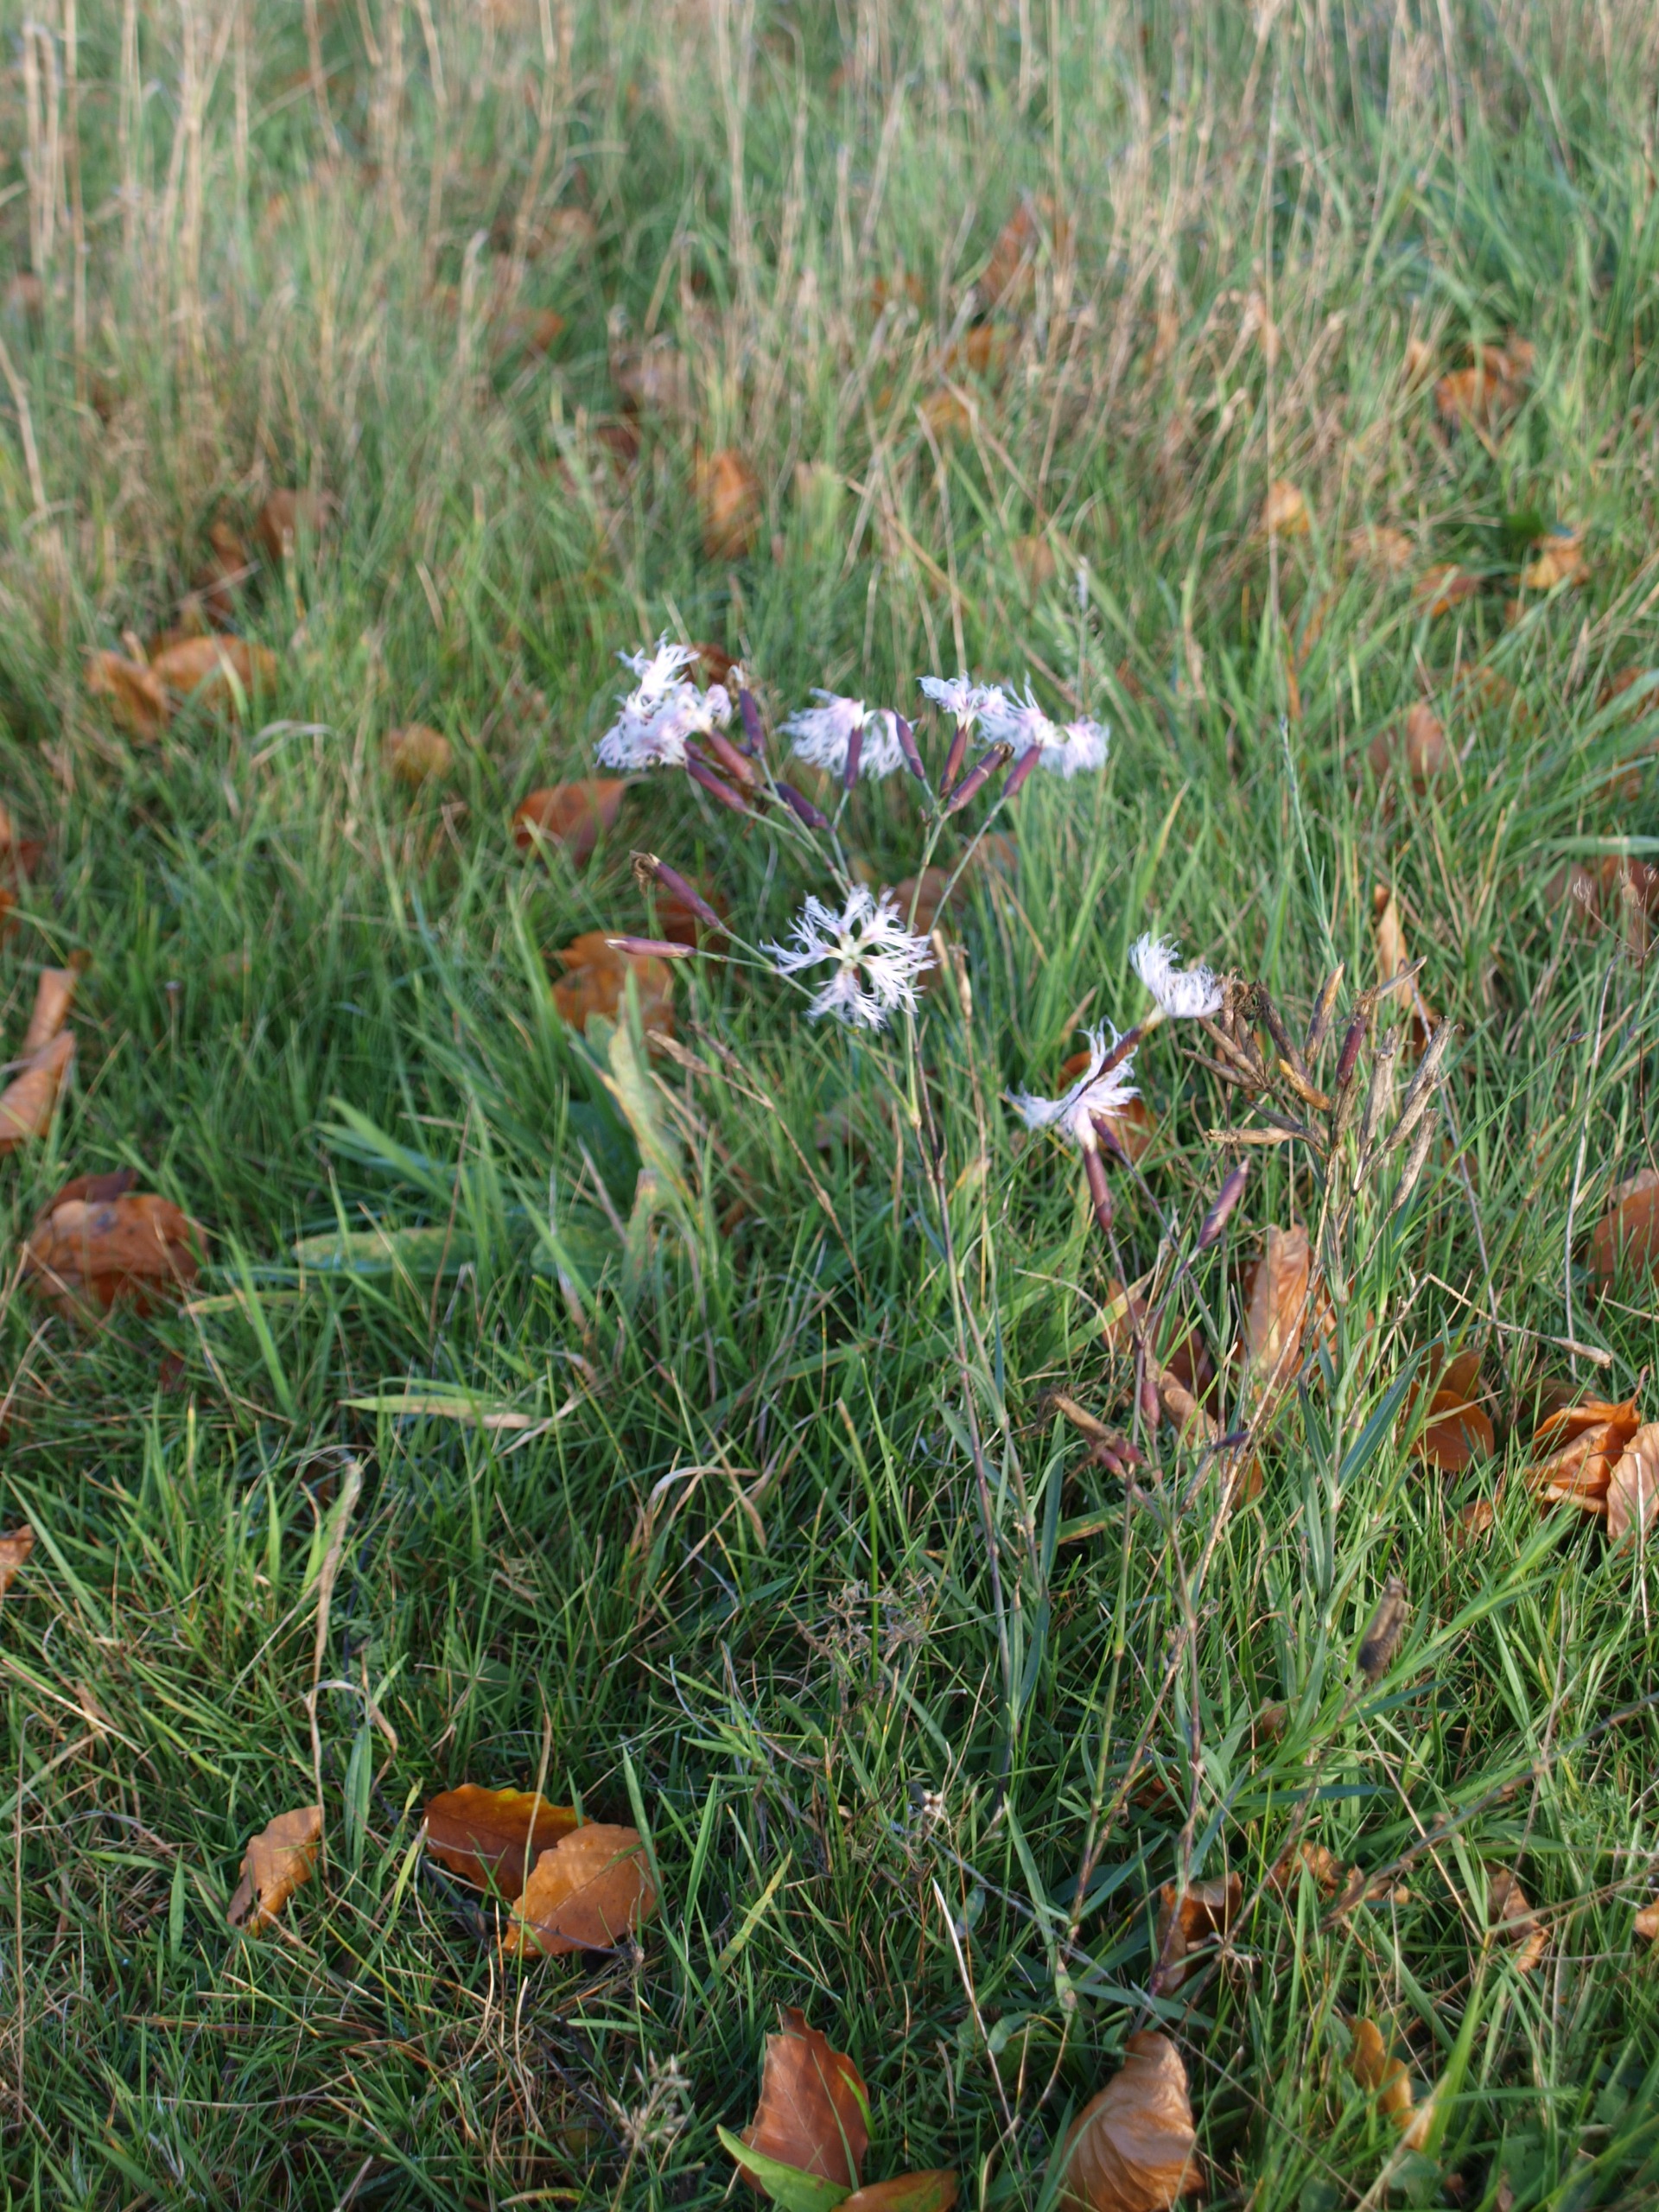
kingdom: Plantae
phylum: Tracheophyta
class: Magnoliopsida
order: Caryophyllales
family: Caryophyllaceae
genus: Dianthus
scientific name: Dianthus superbus
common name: Strand-nellike
